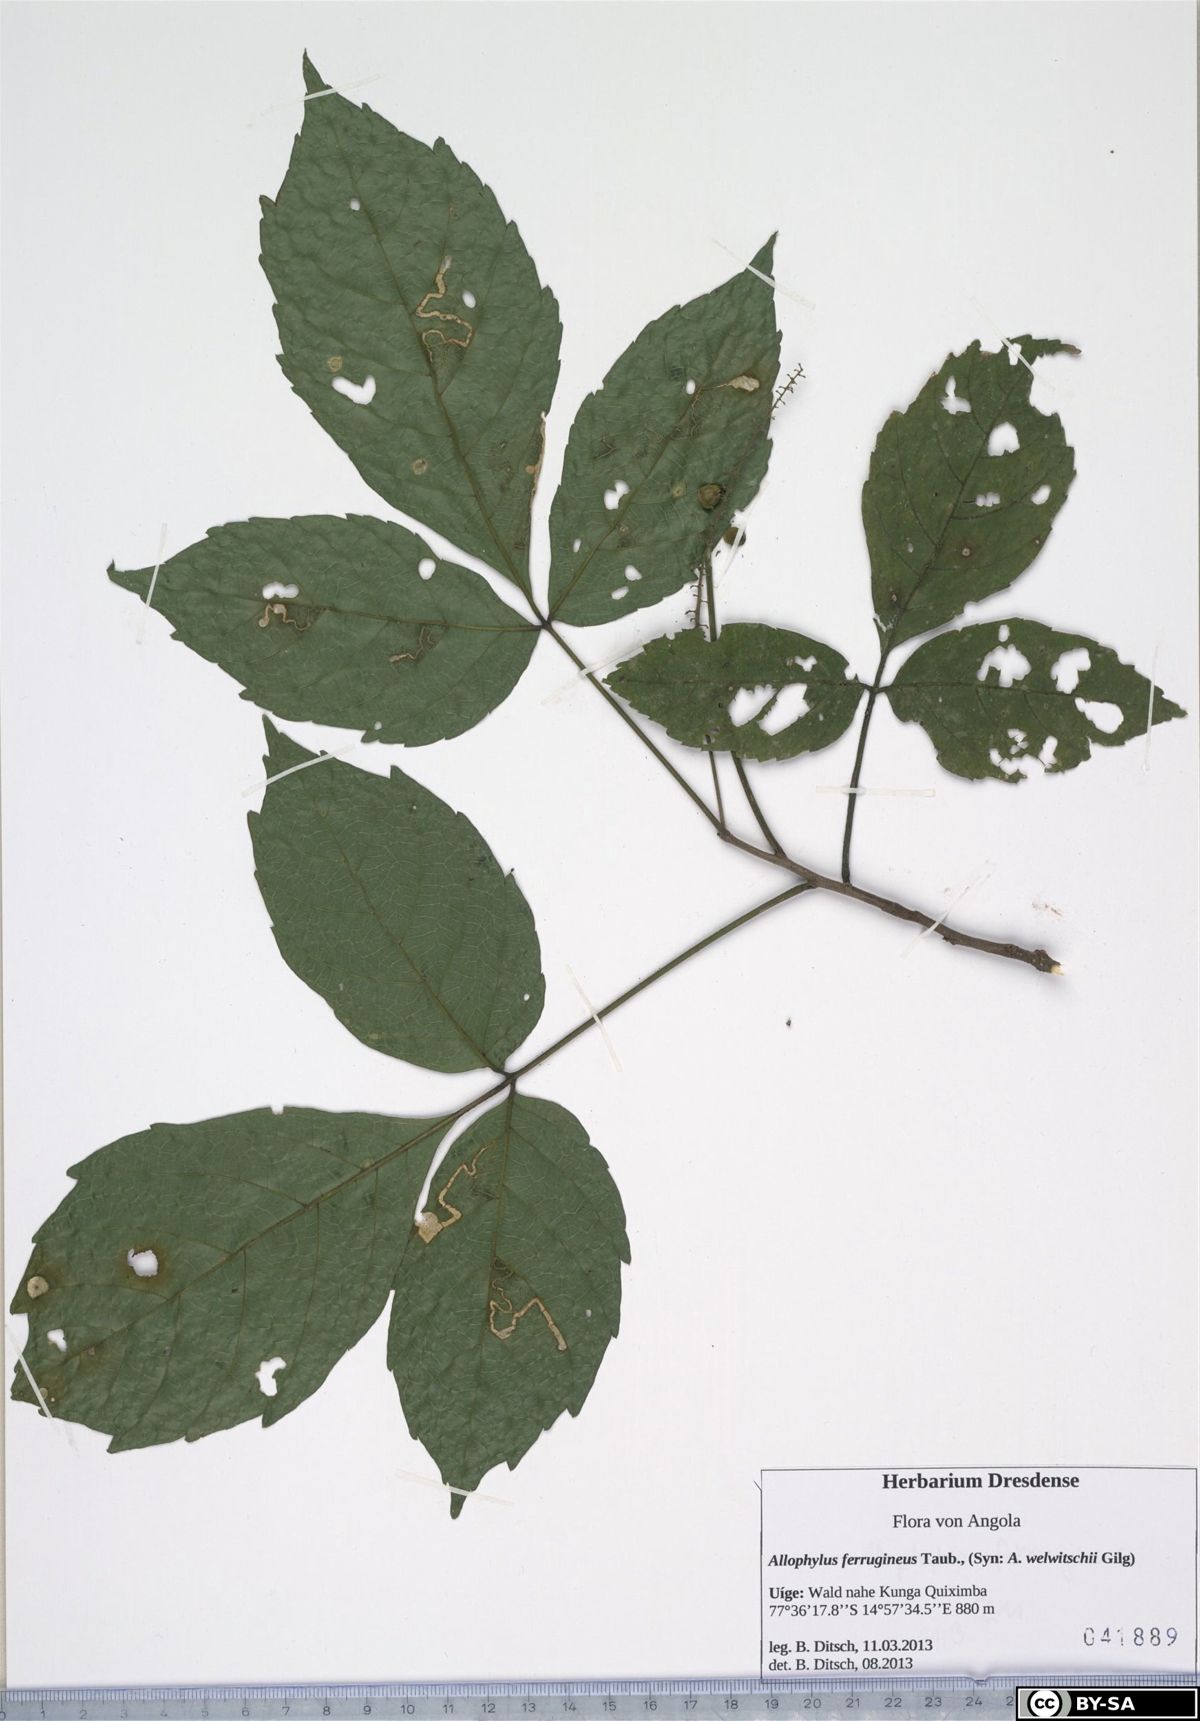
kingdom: Plantae
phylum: Tracheophyta
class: Magnoliopsida
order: Sapindales
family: Sapindaceae
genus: Allophylus
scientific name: Allophylus africanus
